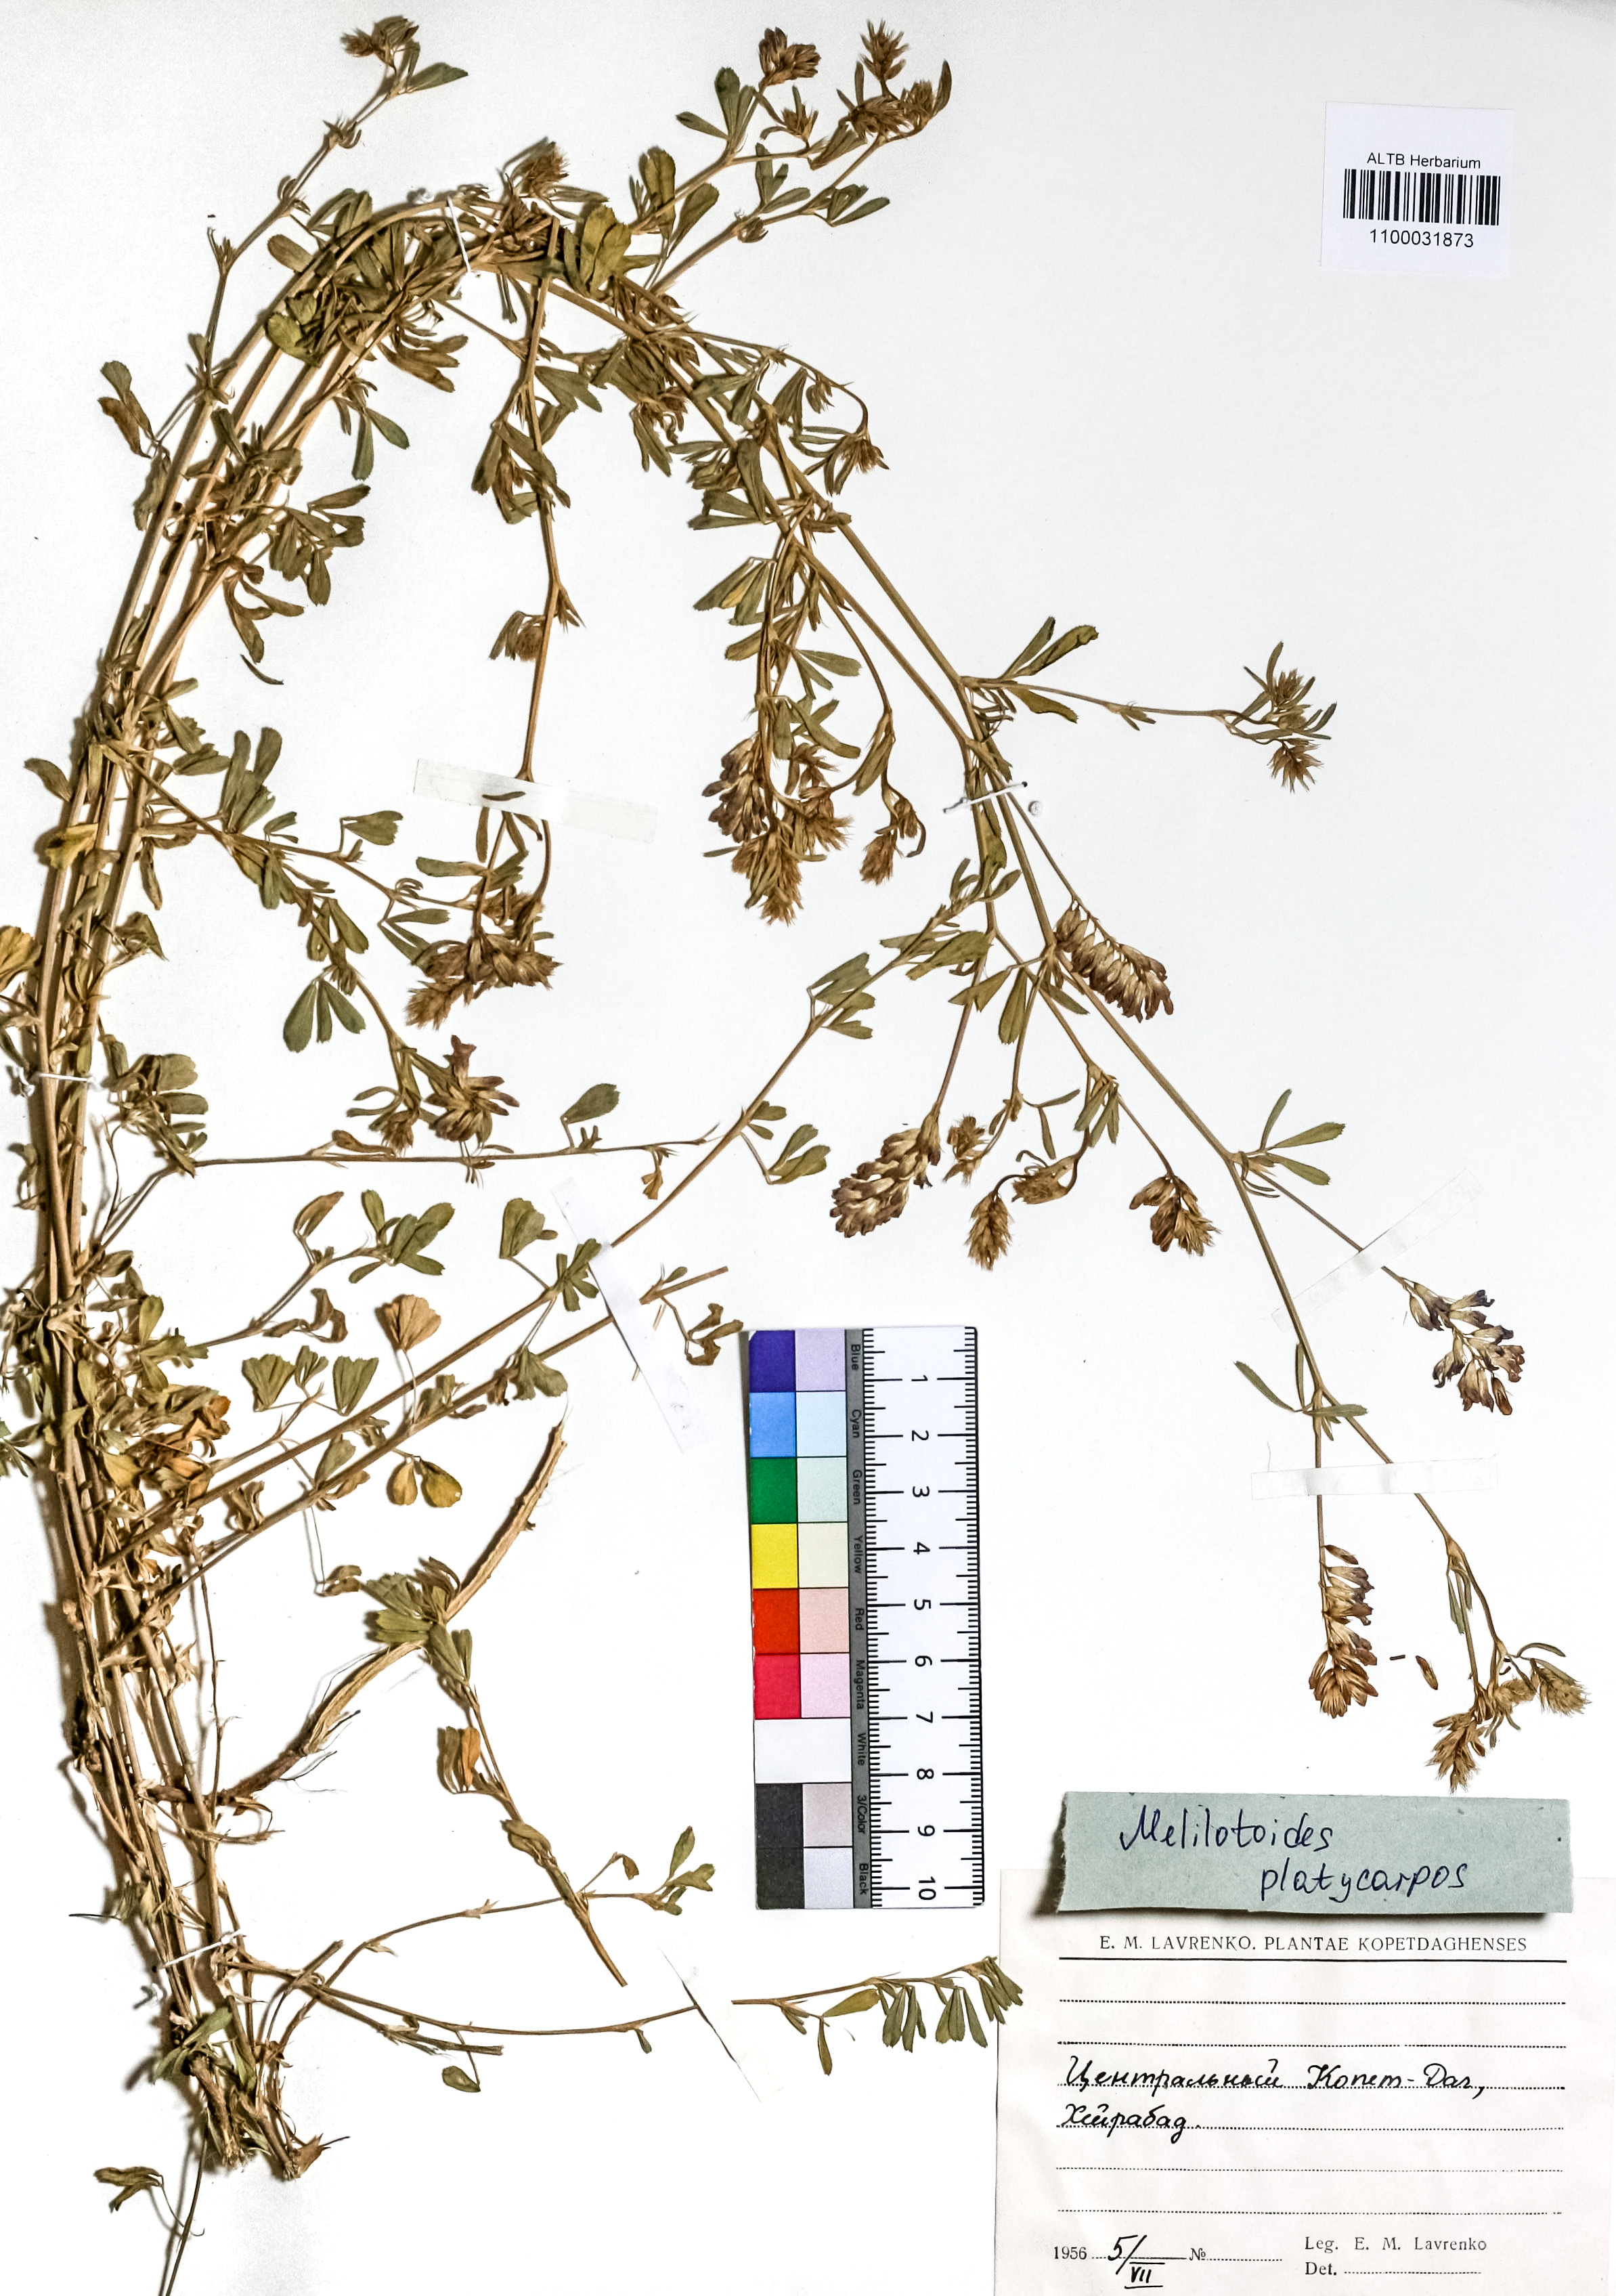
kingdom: Plantae
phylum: Tracheophyta
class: Magnoliopsida
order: Fabales
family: Fabaceae
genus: Medicago
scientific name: Medicago platycarpos
